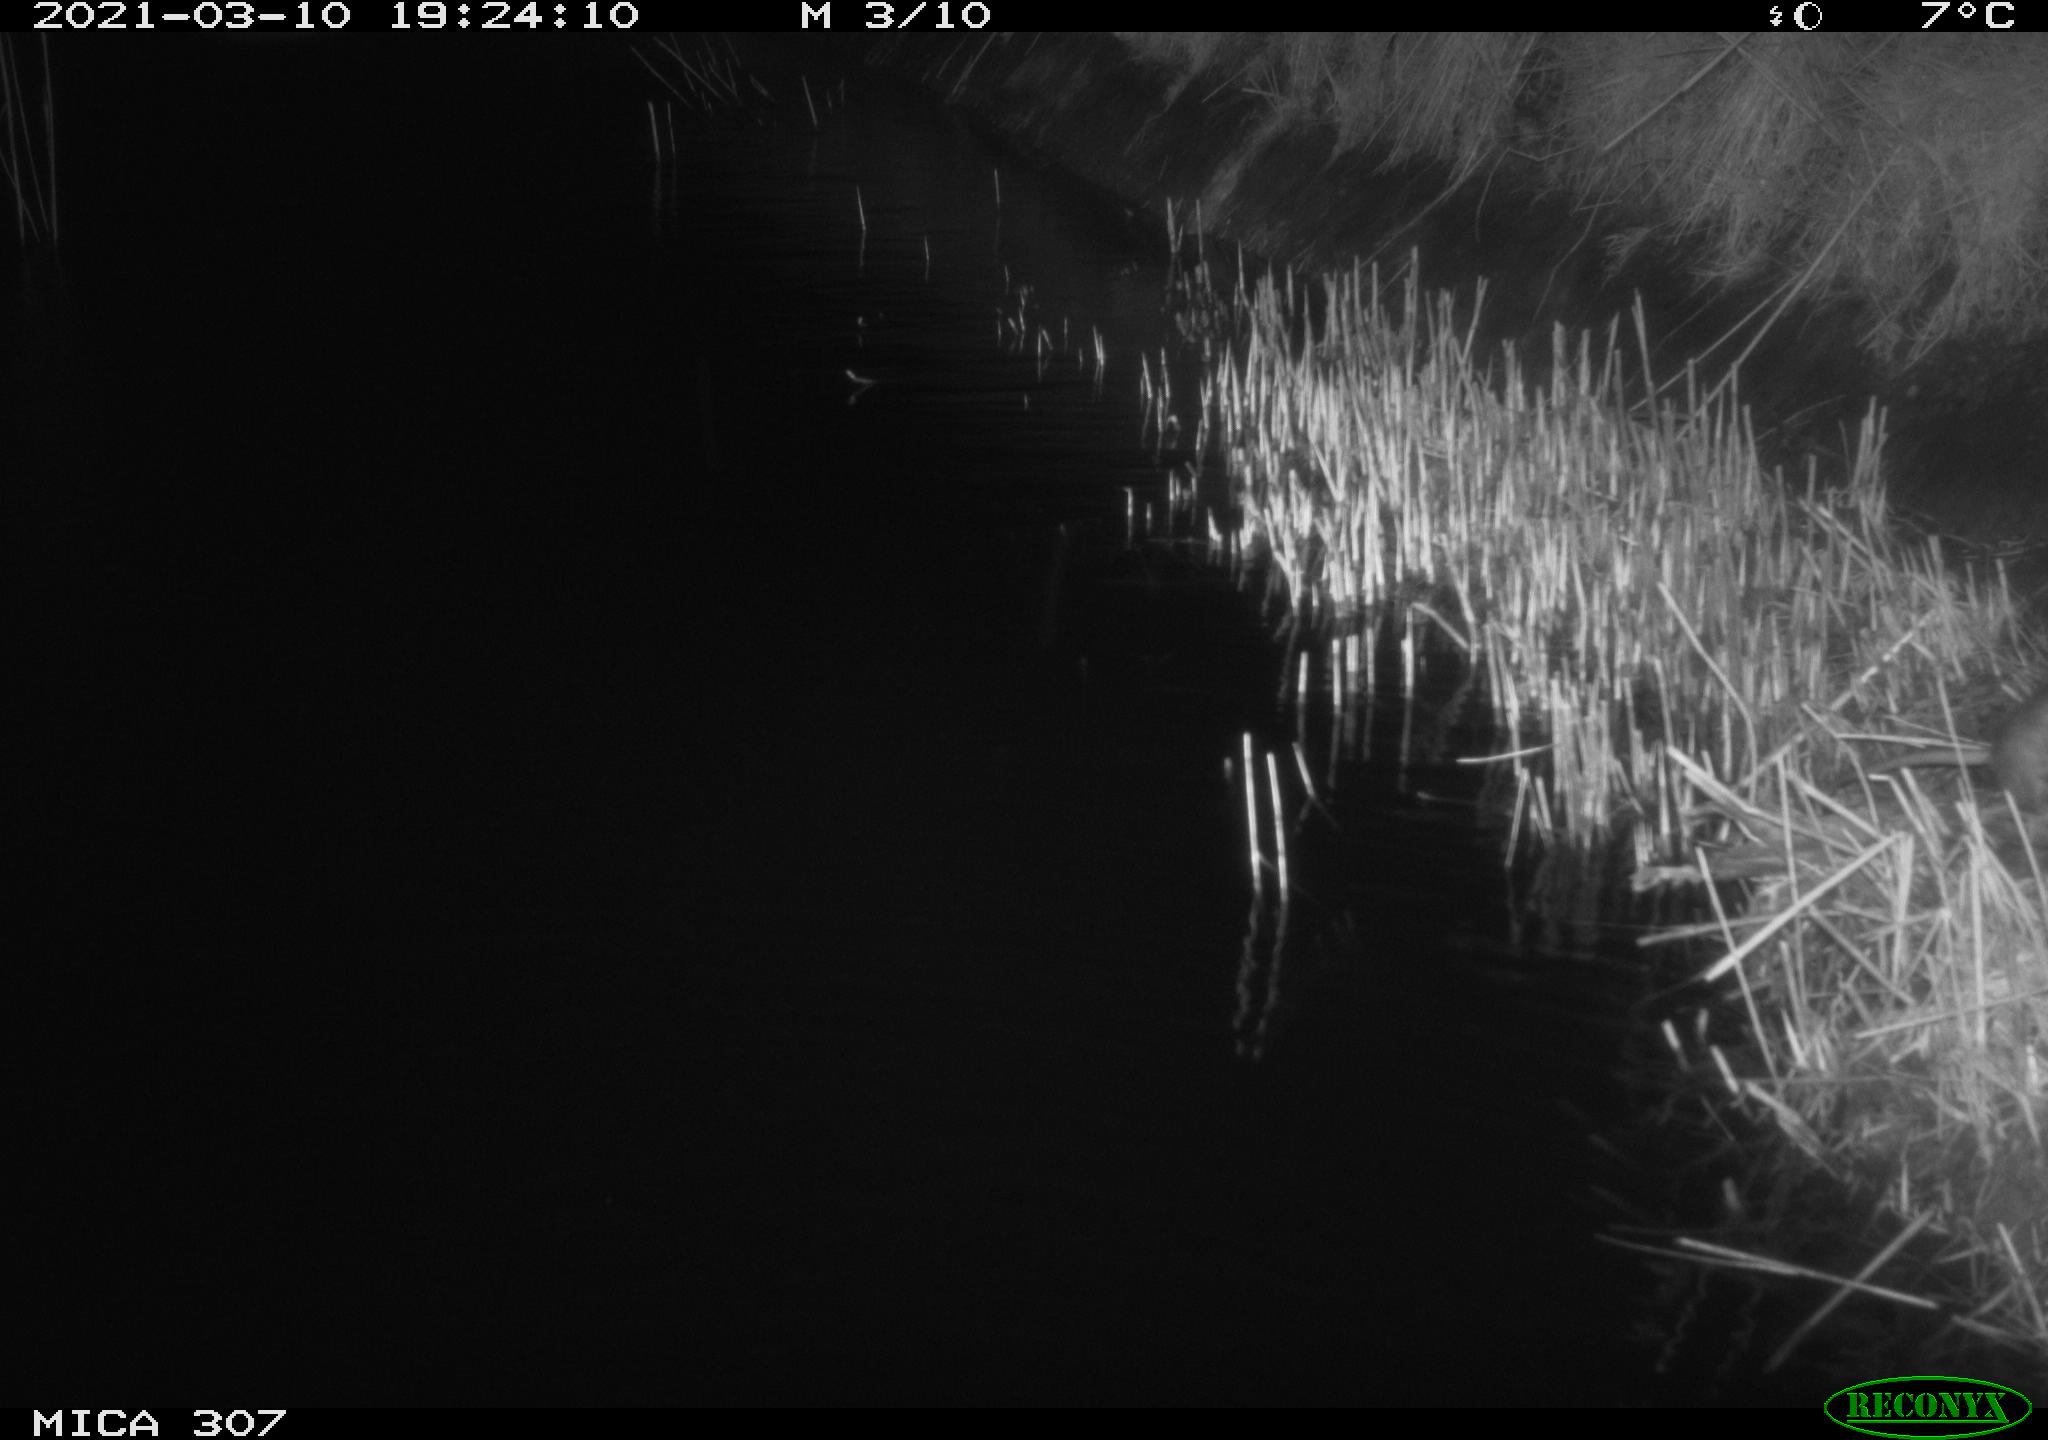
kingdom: Animalia
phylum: Chordata
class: Mammalia
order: Rodentia
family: Muridae
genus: Rattus
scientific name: Rattus norvegicus
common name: Brown rat
